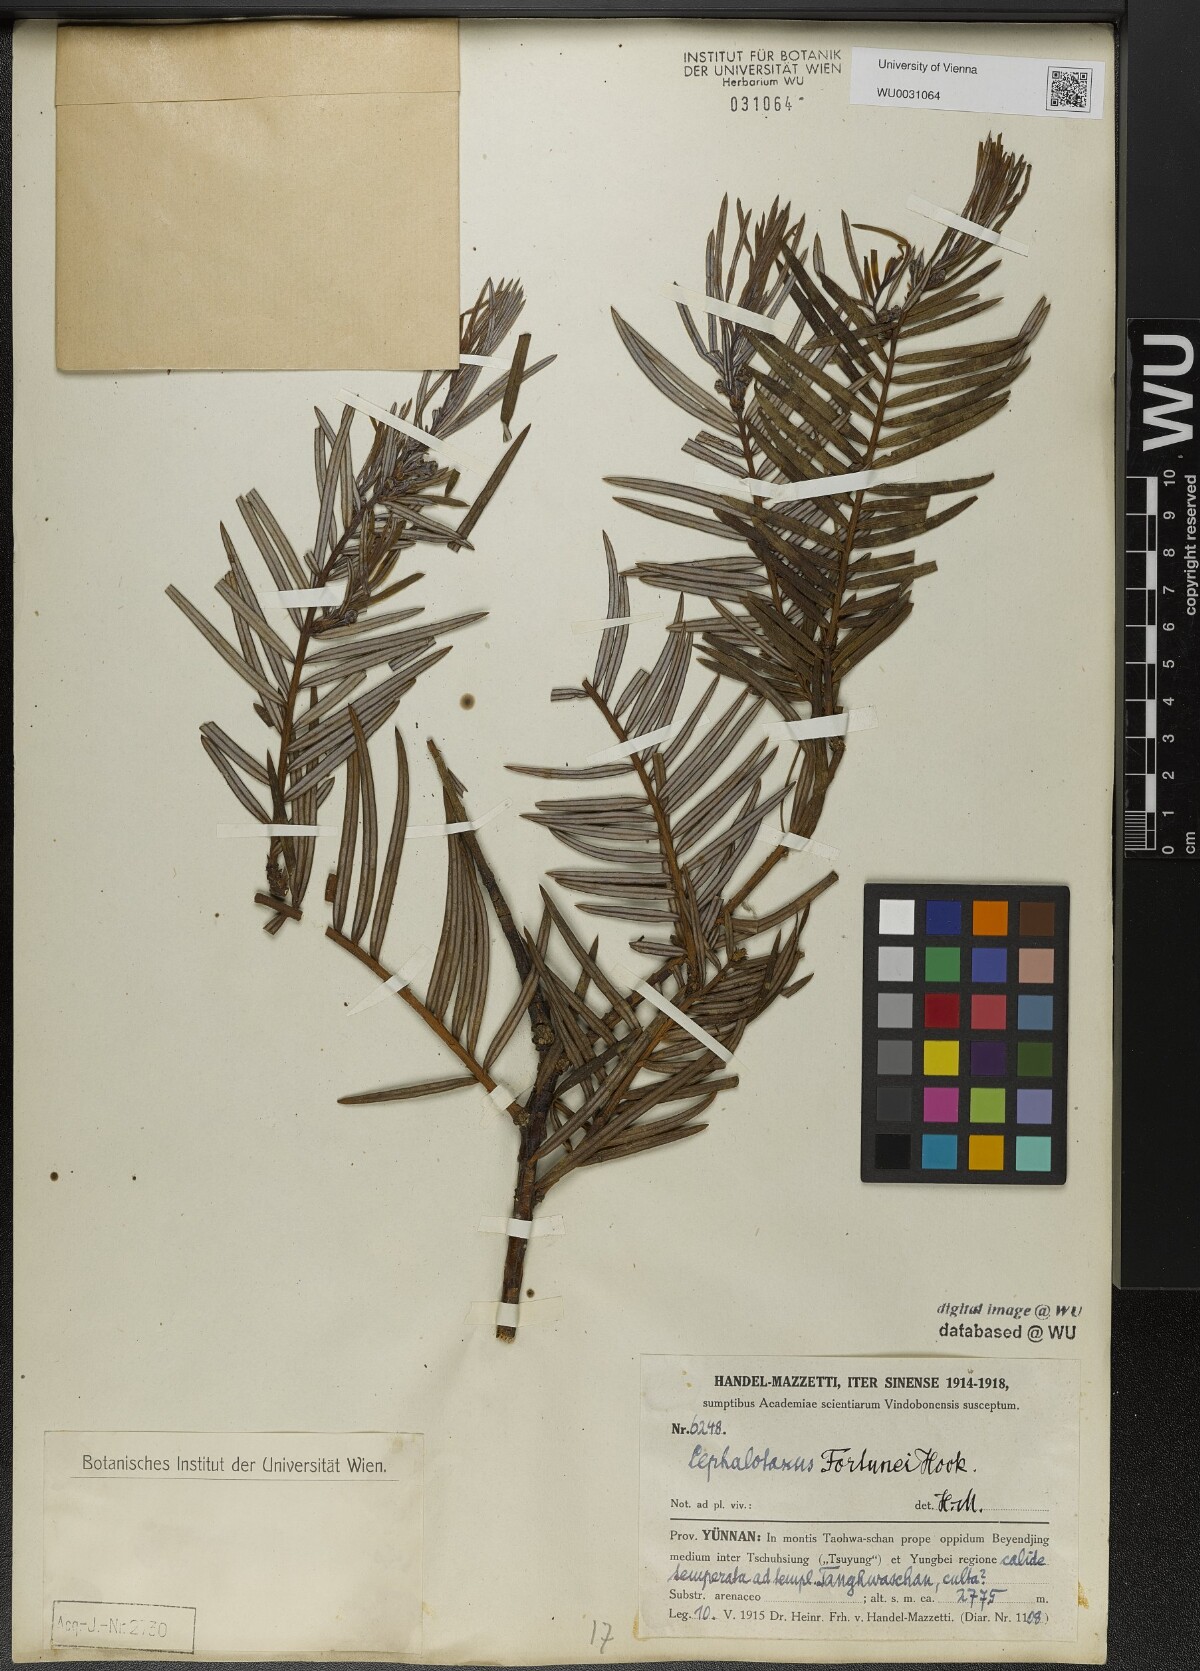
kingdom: Plantae
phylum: Tracheophyta
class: Pinopsida
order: Pinales
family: Cephalotaxaceae
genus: Cephalotaxus
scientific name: Cephalotaxus fortunei
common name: Chinese plum-yew
